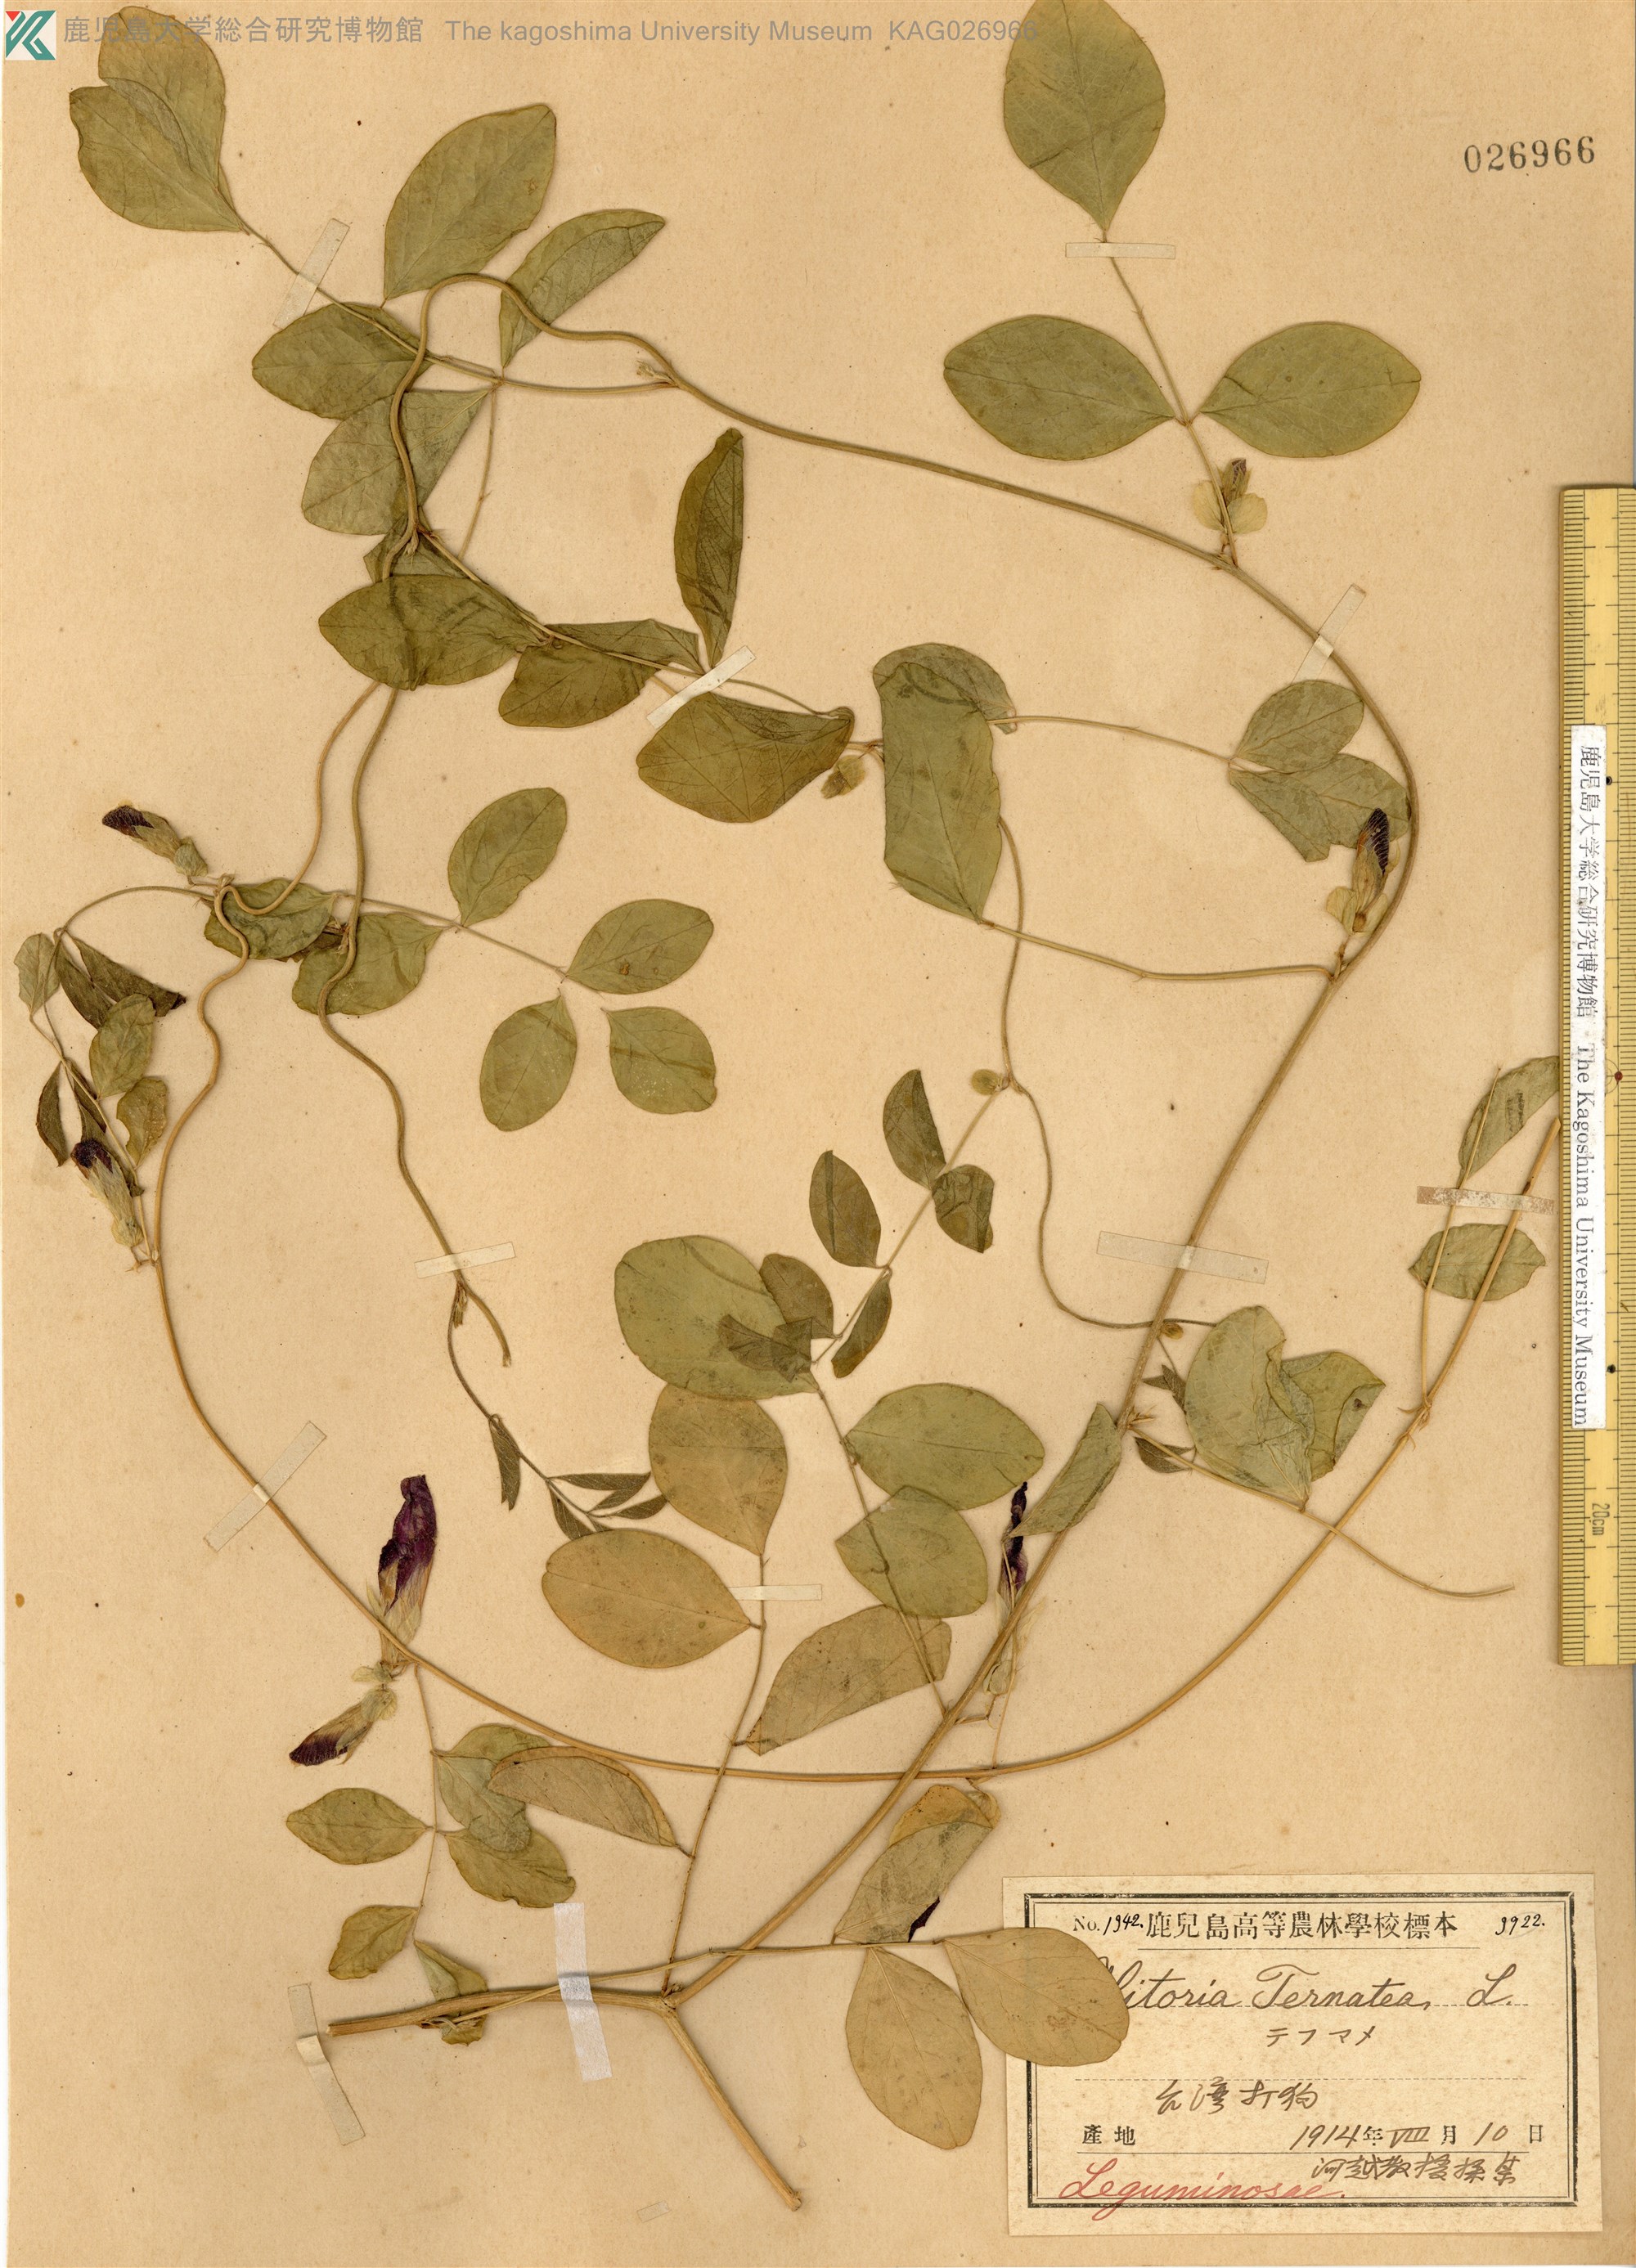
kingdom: Plantae
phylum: Tracheophyta
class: Magnoliopsida
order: Fabales
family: Fabaceae
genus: Clitoria
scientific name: Clitoria ternatea
